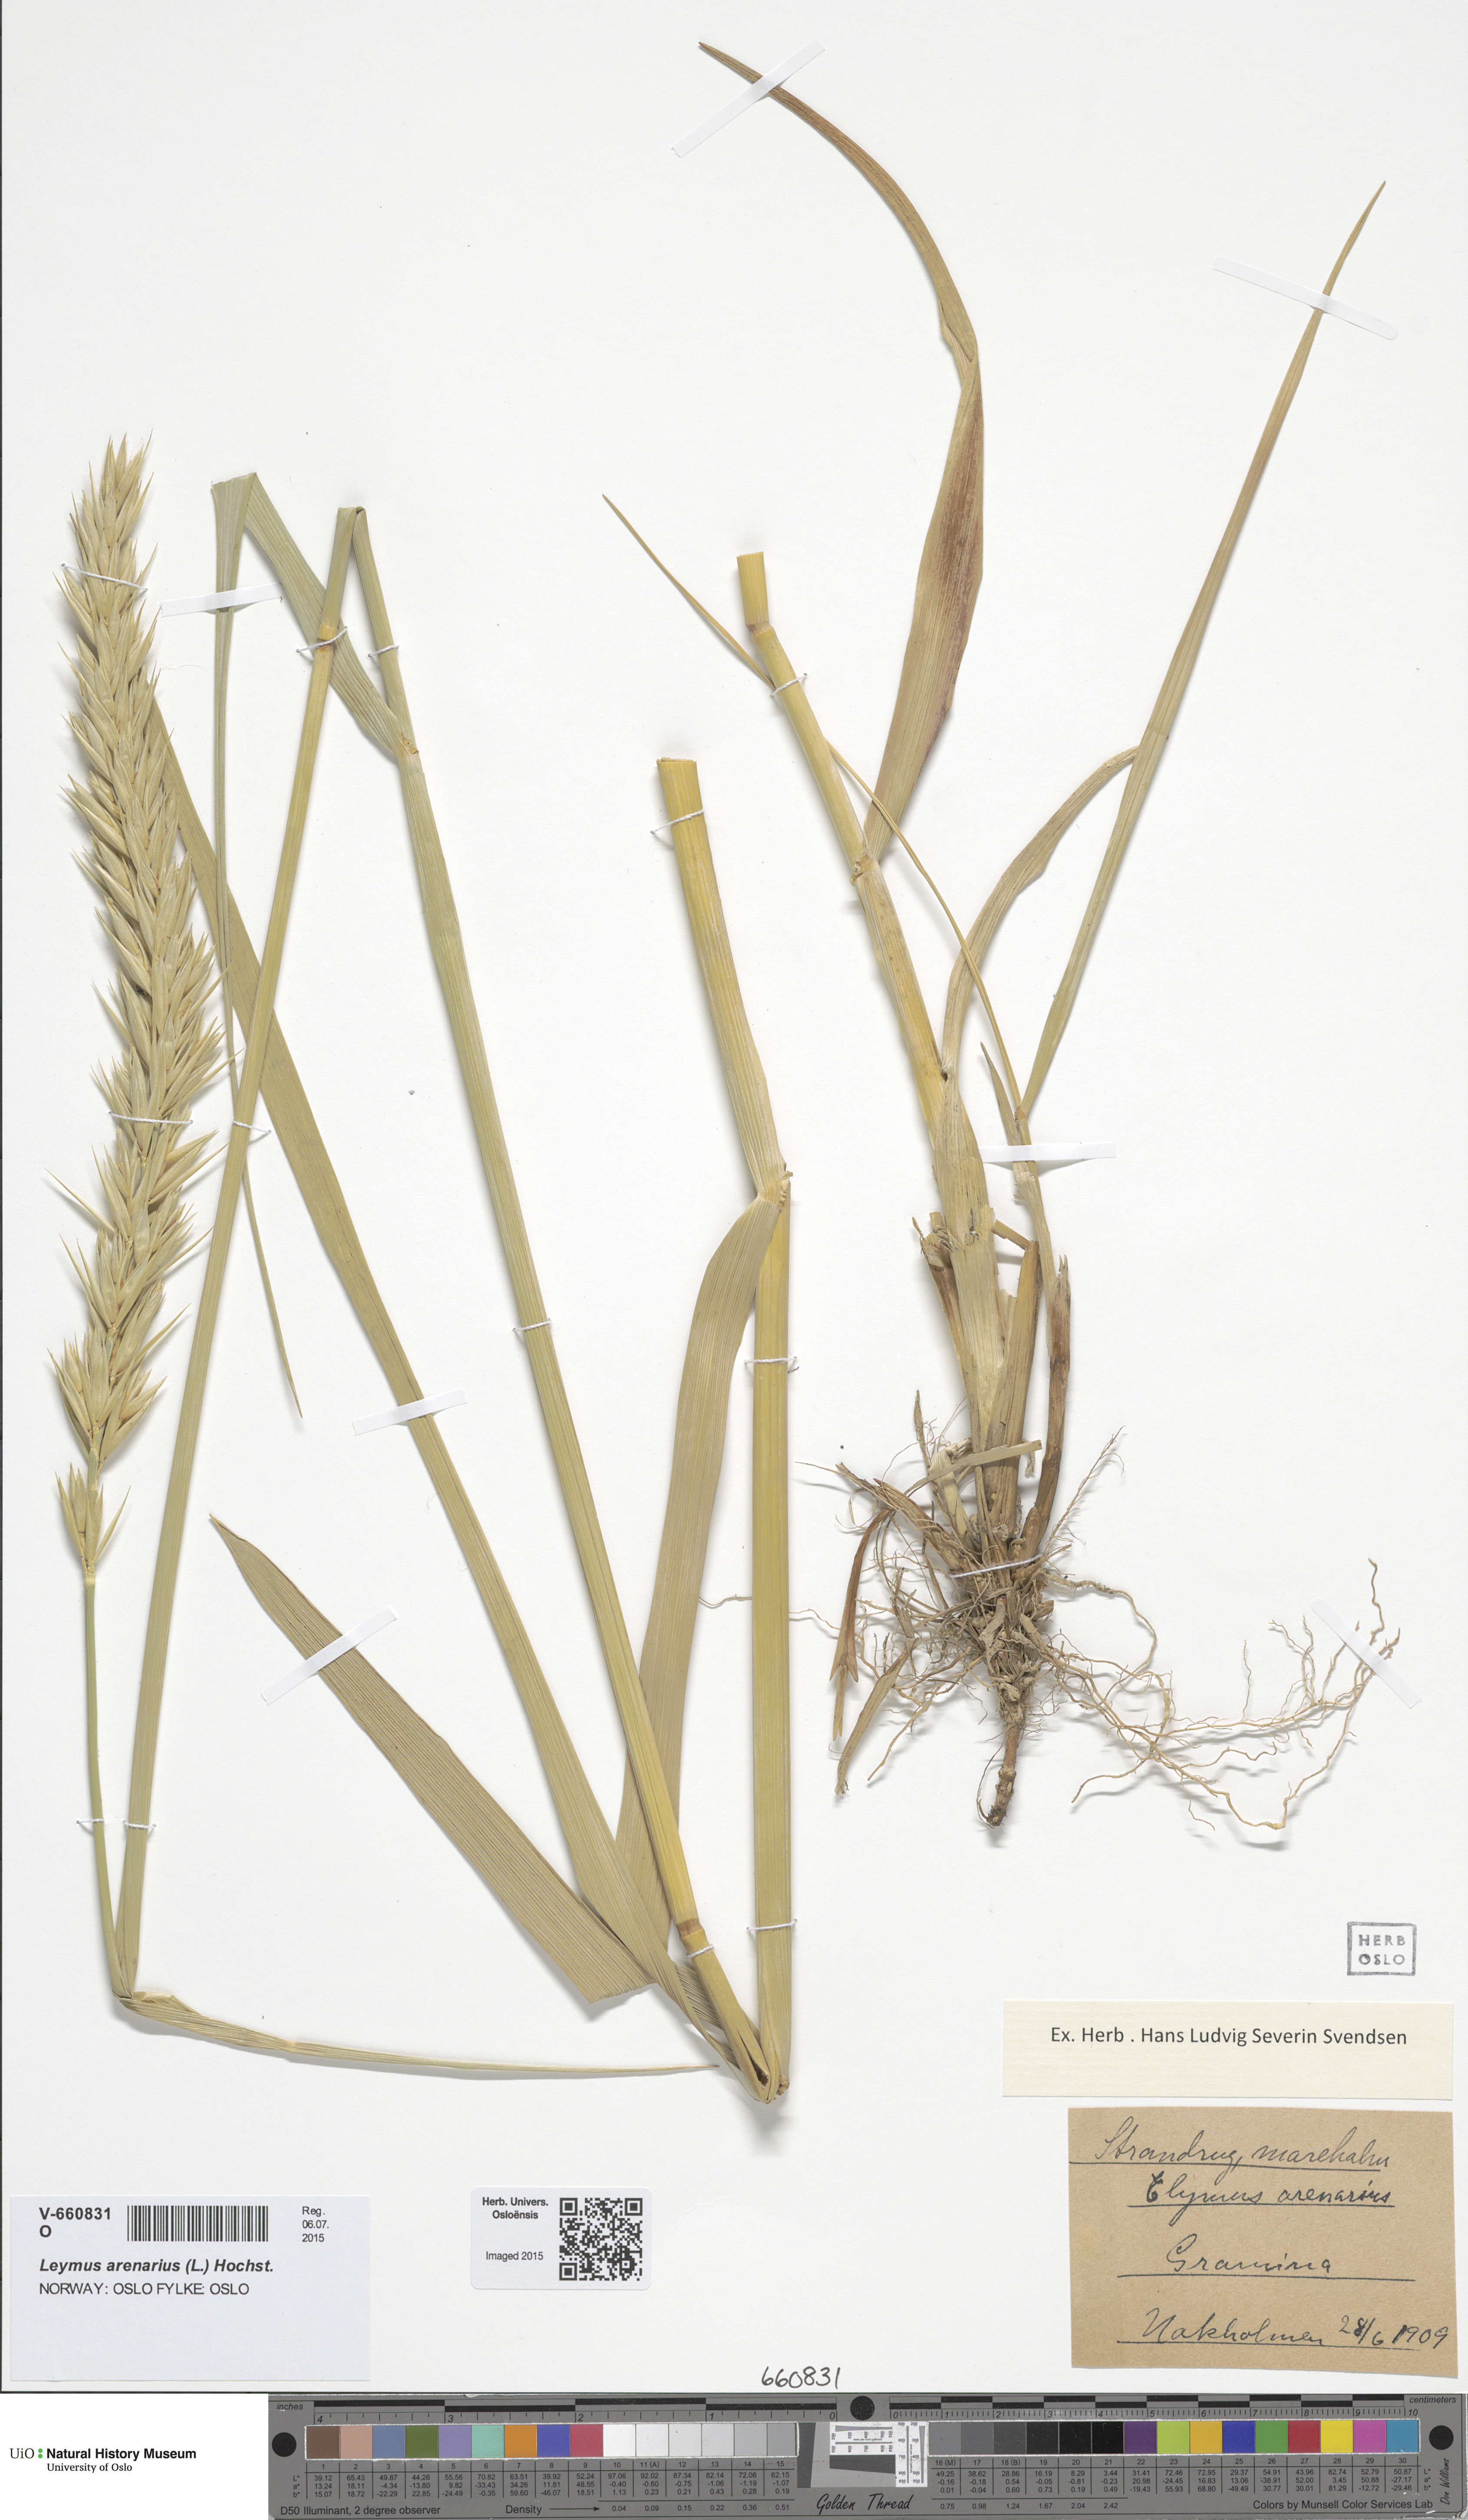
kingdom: Plantae
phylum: Tracheophyta
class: Liliopsida
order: Poales
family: Poaceae
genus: Leymus
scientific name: Leymus arenarius
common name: Lyme-grass
